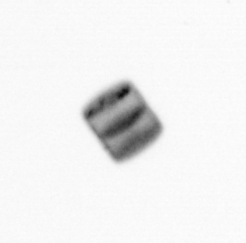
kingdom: Chromista
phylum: Ochrophyta
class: Bacillariophyceae
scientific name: Bacillariophyceae
